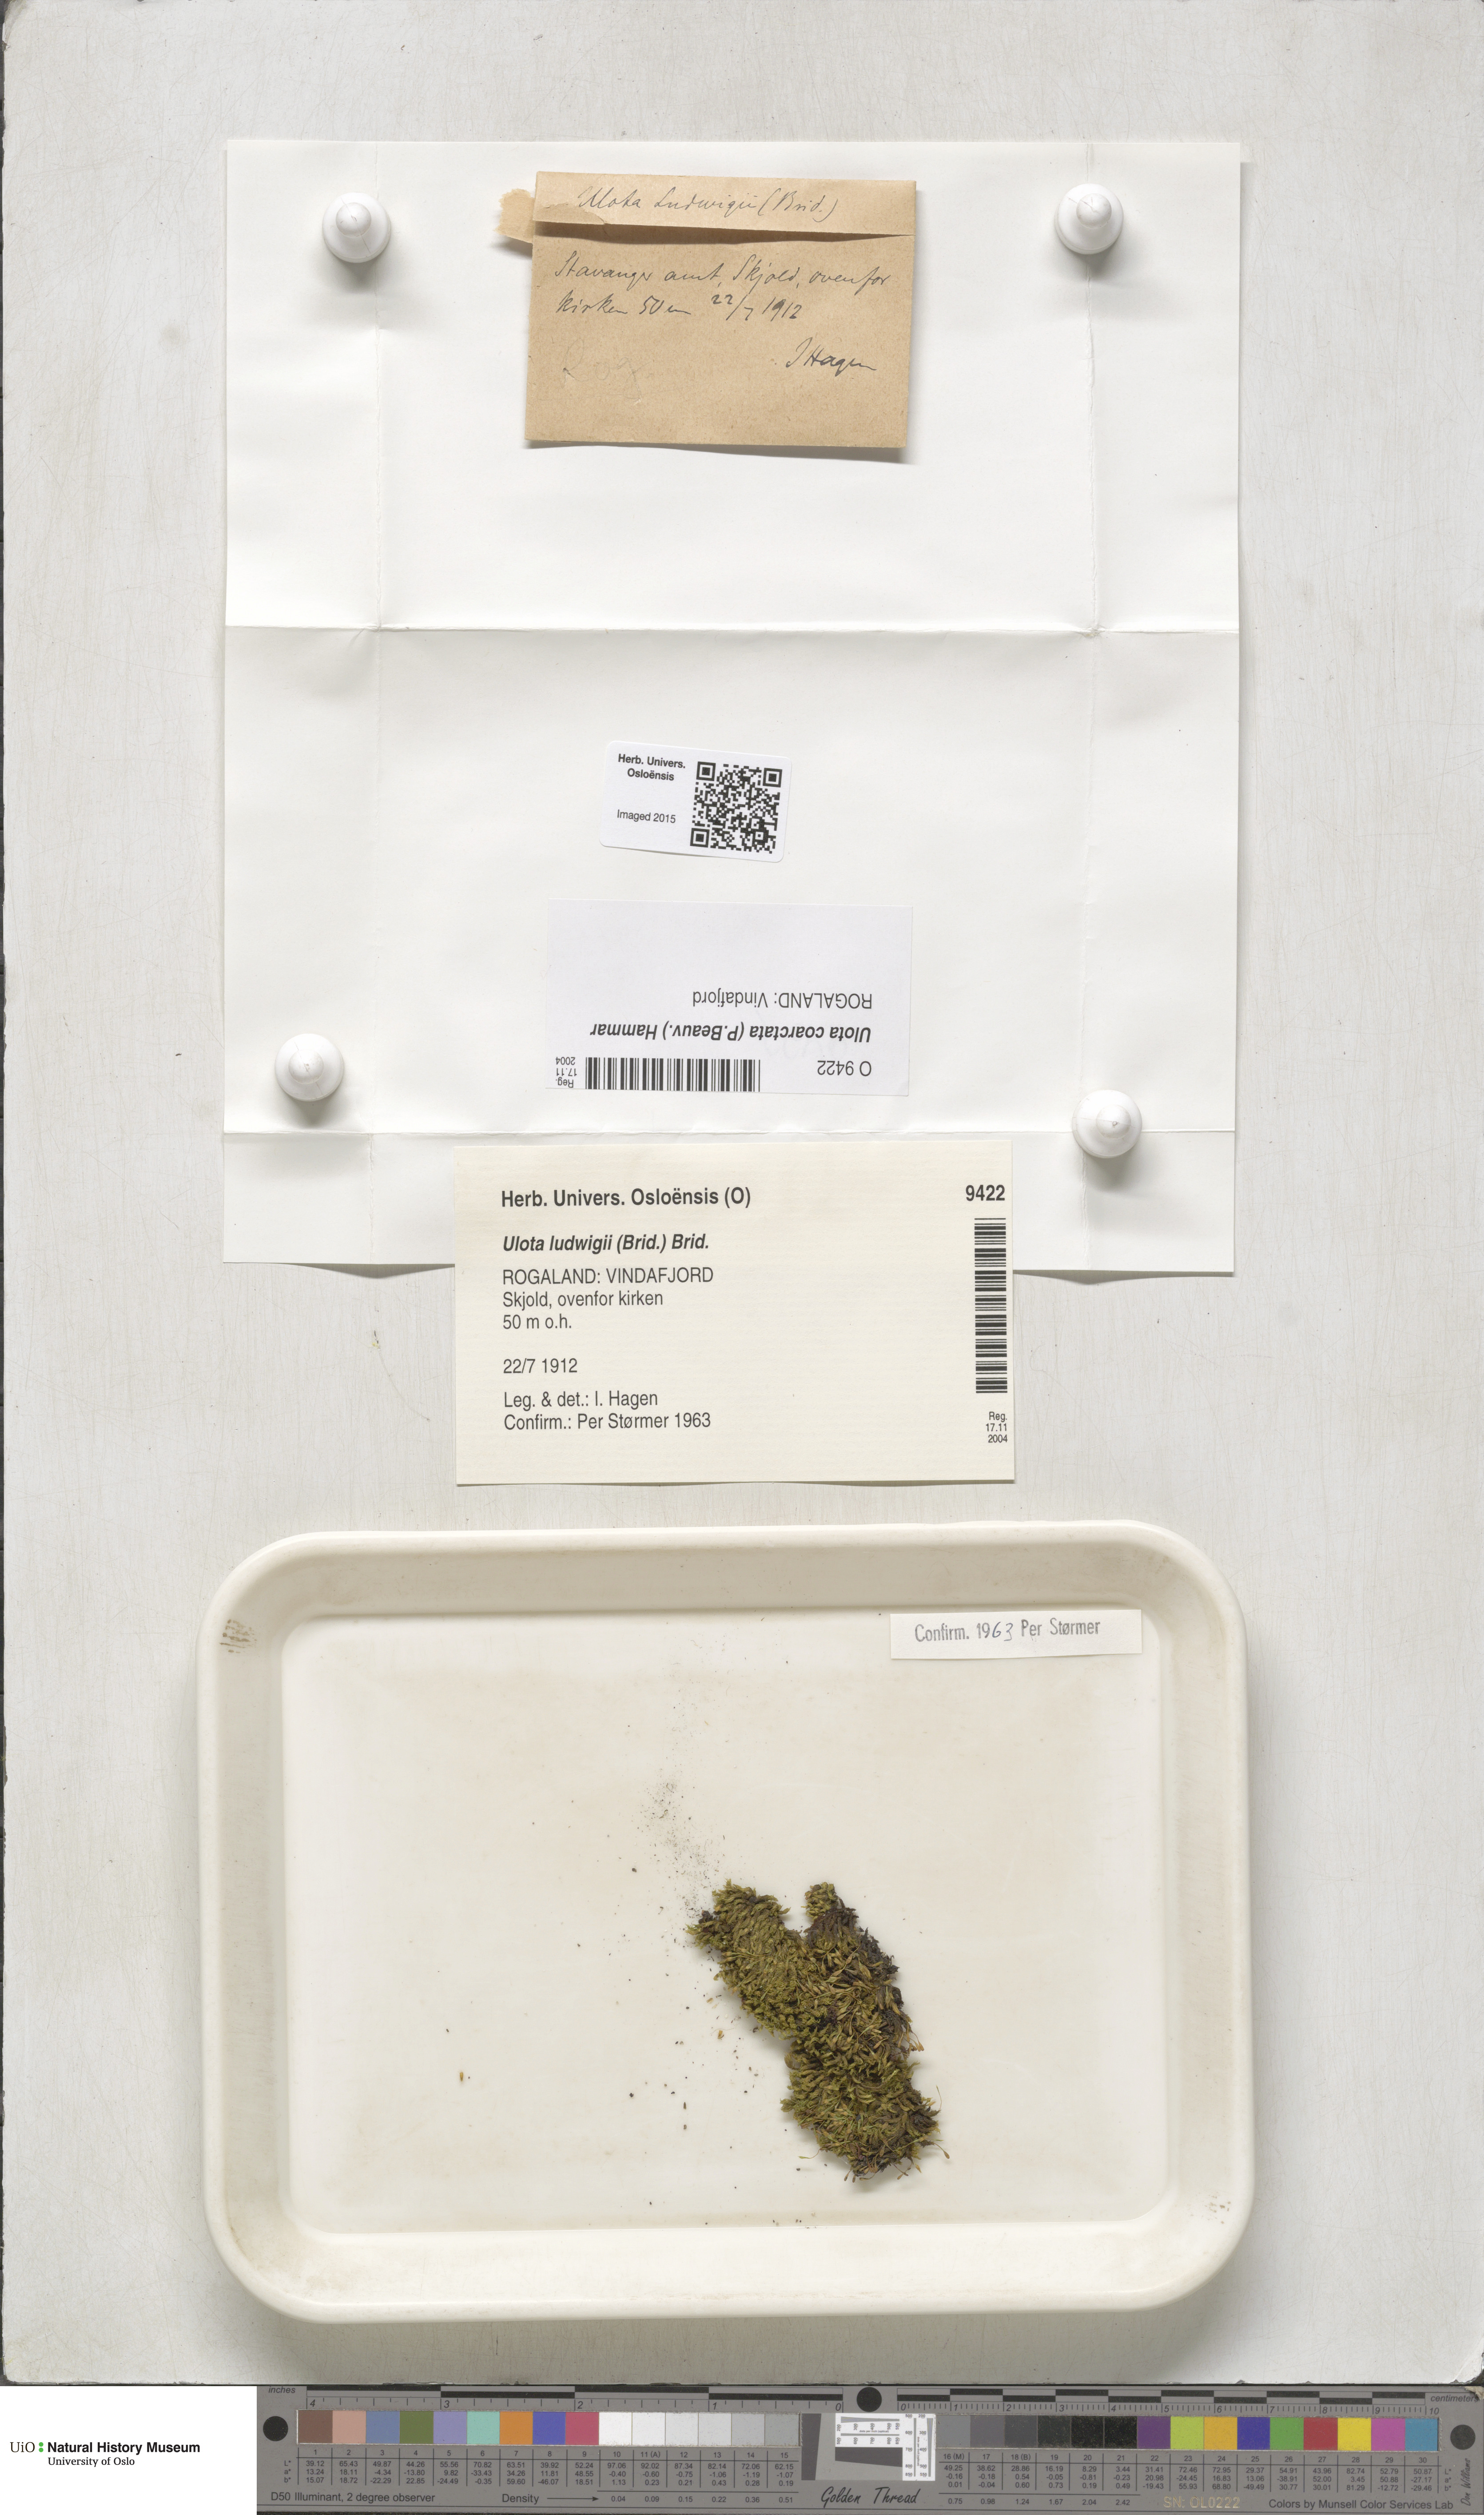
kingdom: Plantae
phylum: Bryophyta
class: Bryopsida
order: Orthotrichales
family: Orthotrichaceae
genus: Ulota
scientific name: Ulota coarctata
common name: Club pincushion moss
